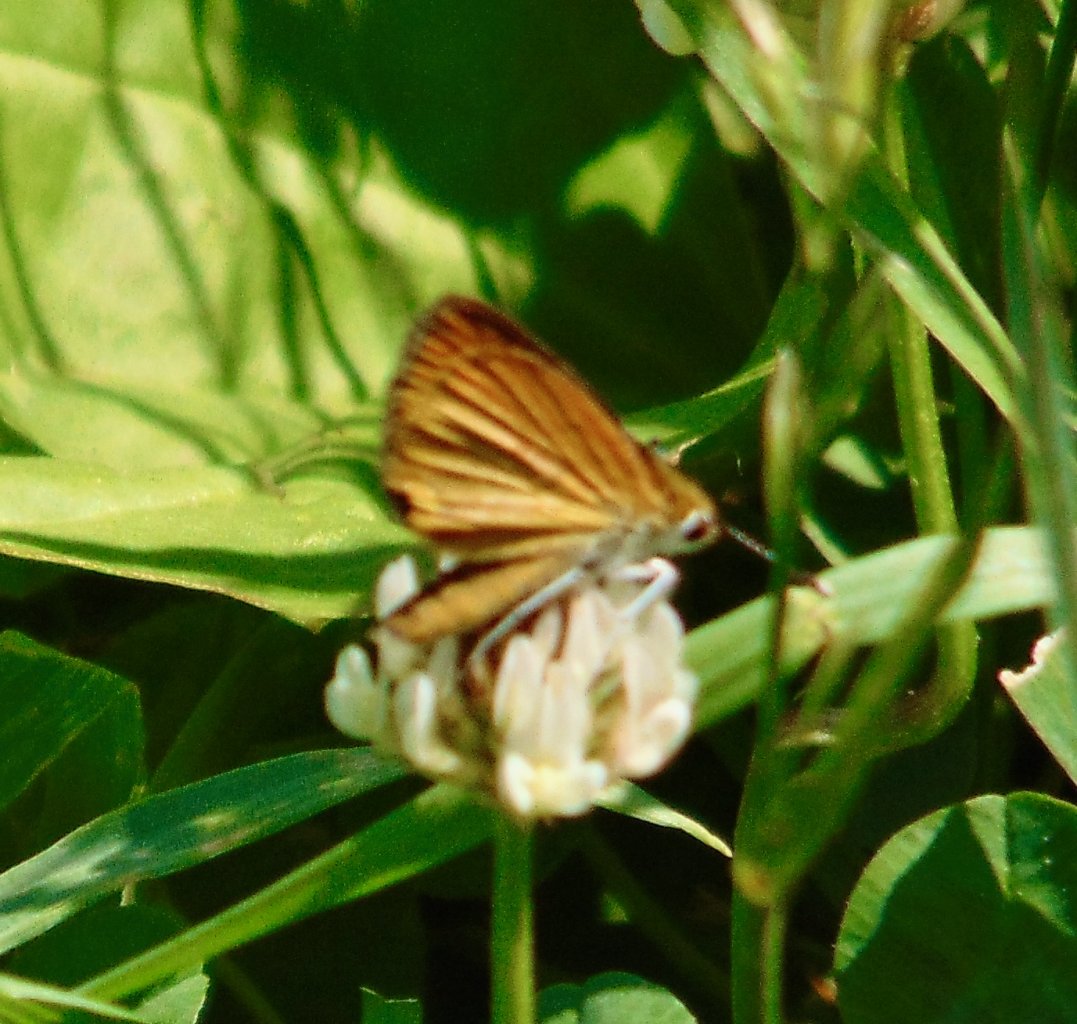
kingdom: Animalia
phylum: Arthropoda
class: Insecta
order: Lepidoptera
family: Hesperiidae
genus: Ancyloxypha
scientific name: Ancyloxypha numitor
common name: Least Skipper
